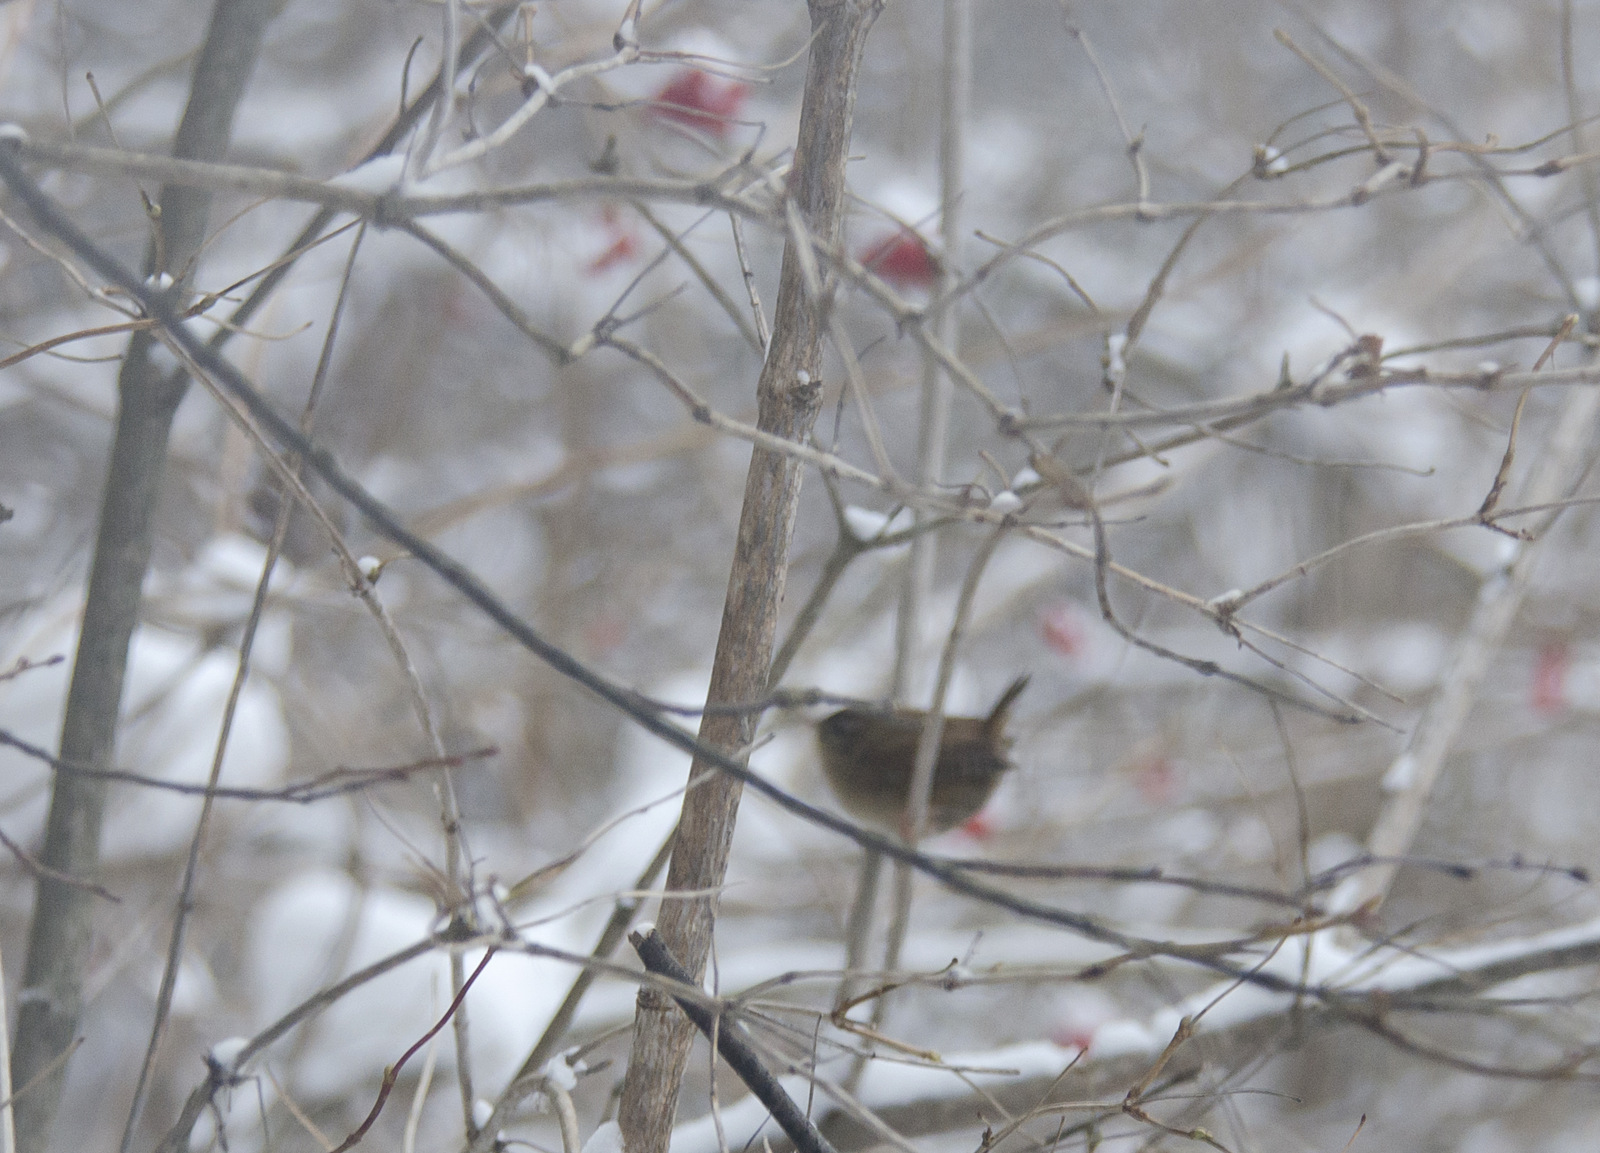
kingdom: Animalia
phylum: Chordata
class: Aves
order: Passeriformes
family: Troglodytidae
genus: Troglodytes
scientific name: Troglodytes troglodytes
